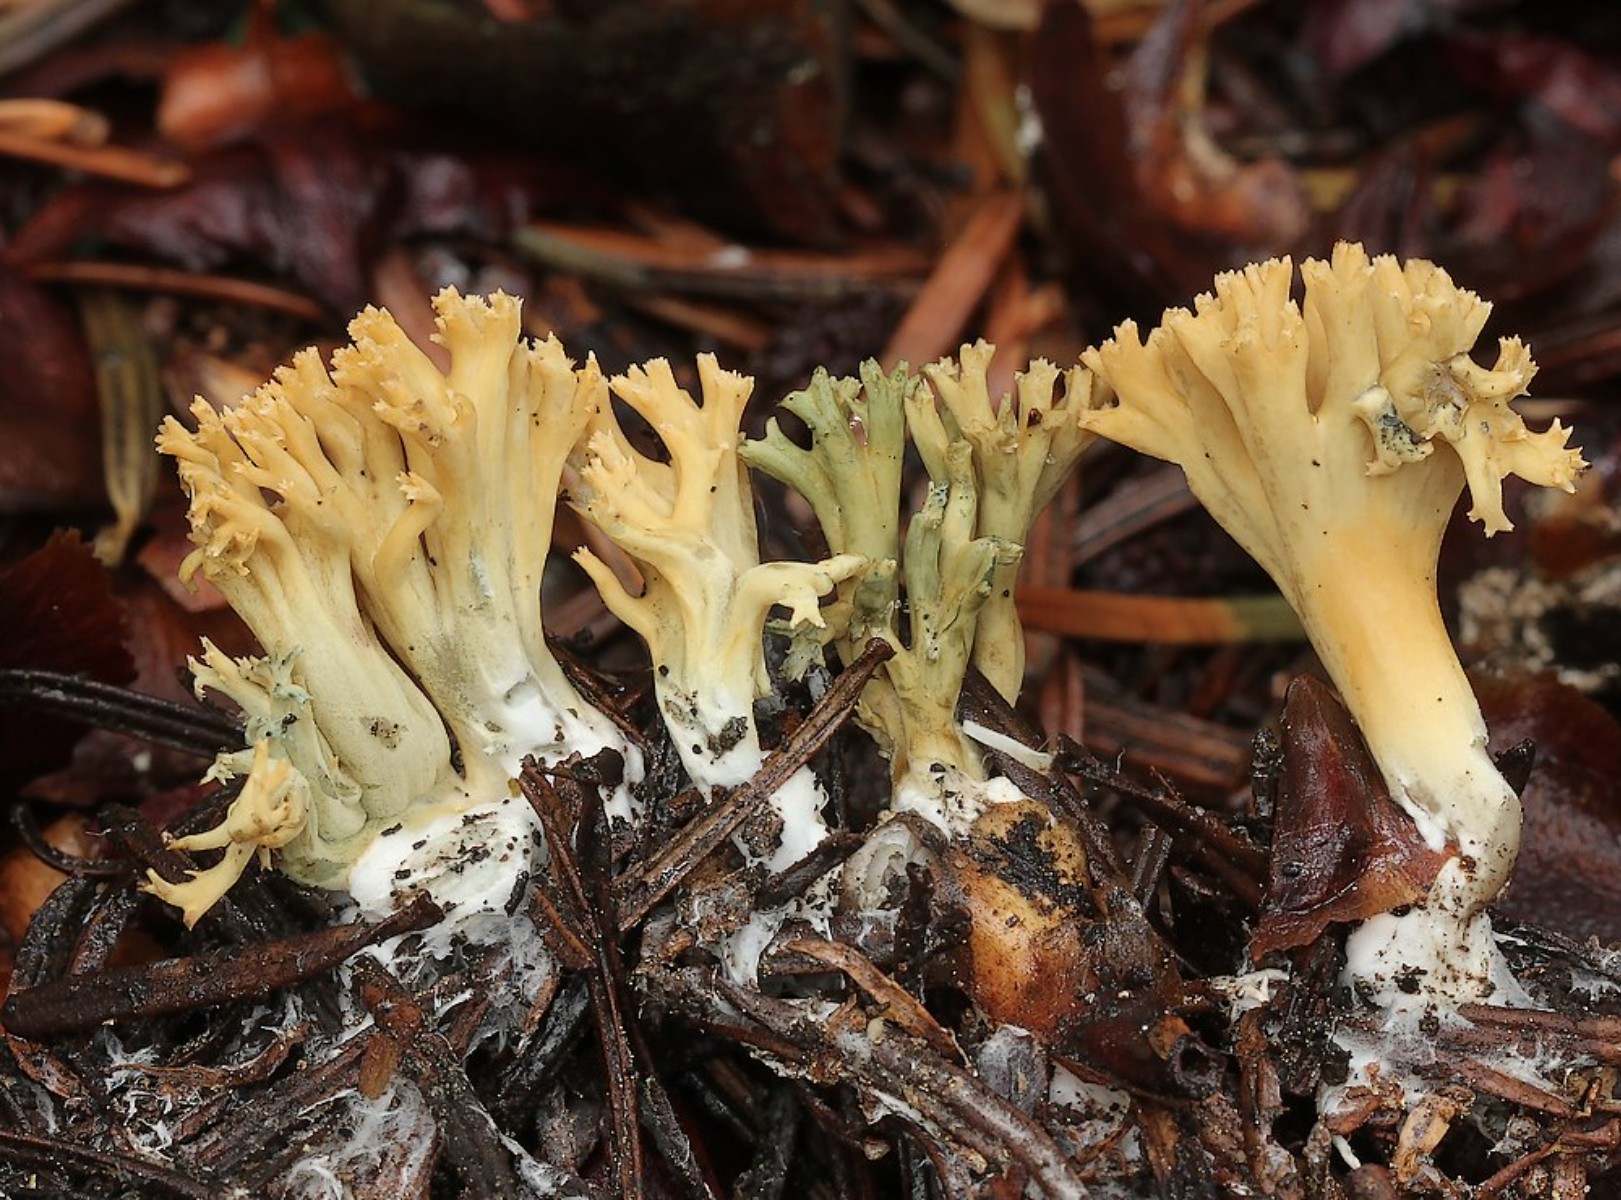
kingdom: Fungi
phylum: Basidiomycota
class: Agaricomycetes
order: Gomphales
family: Gomphaceae
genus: Phaeoclavulina
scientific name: Phaeoclavulina abietina
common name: gulgrøn koralsvamp
